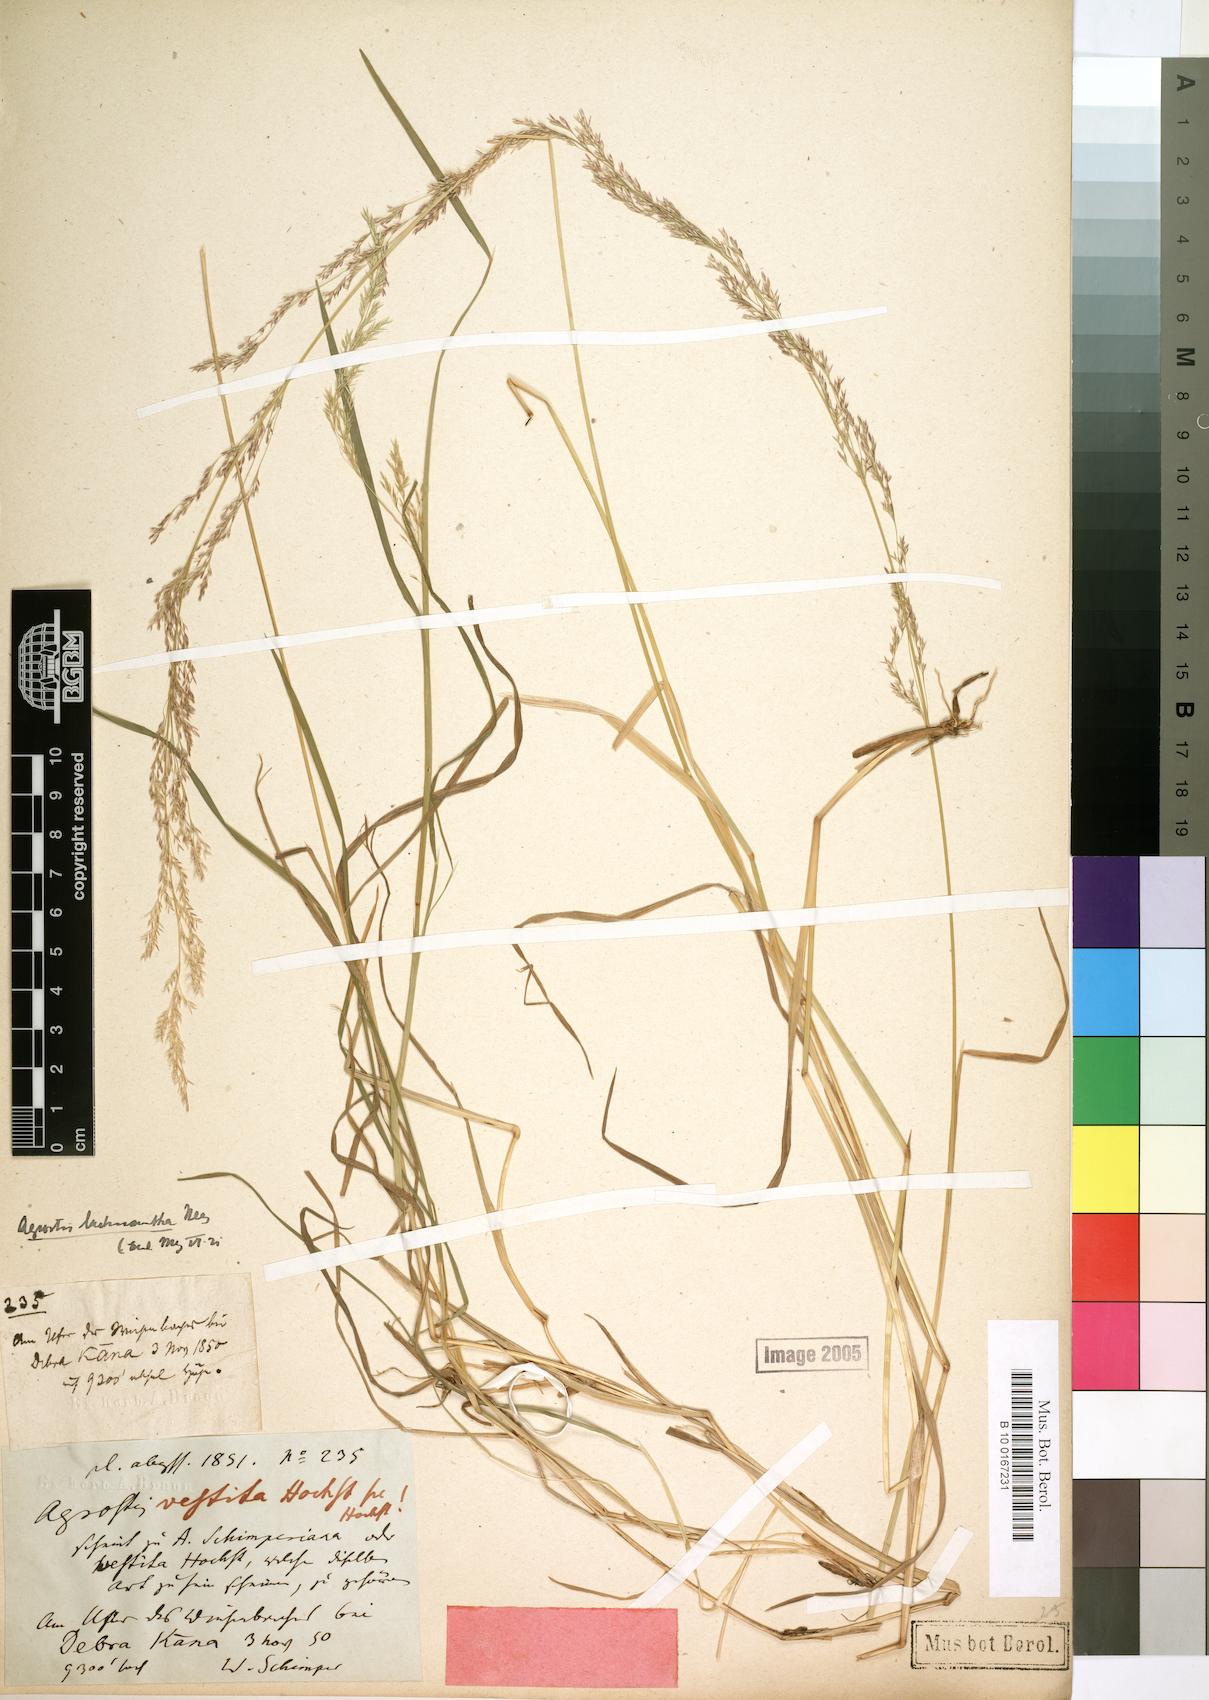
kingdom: Plantae
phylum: Tracheophyta
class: Liliopsida
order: Poales
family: Poaceae
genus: Lachnagrostis
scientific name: Lachnagrostis lachnantha
